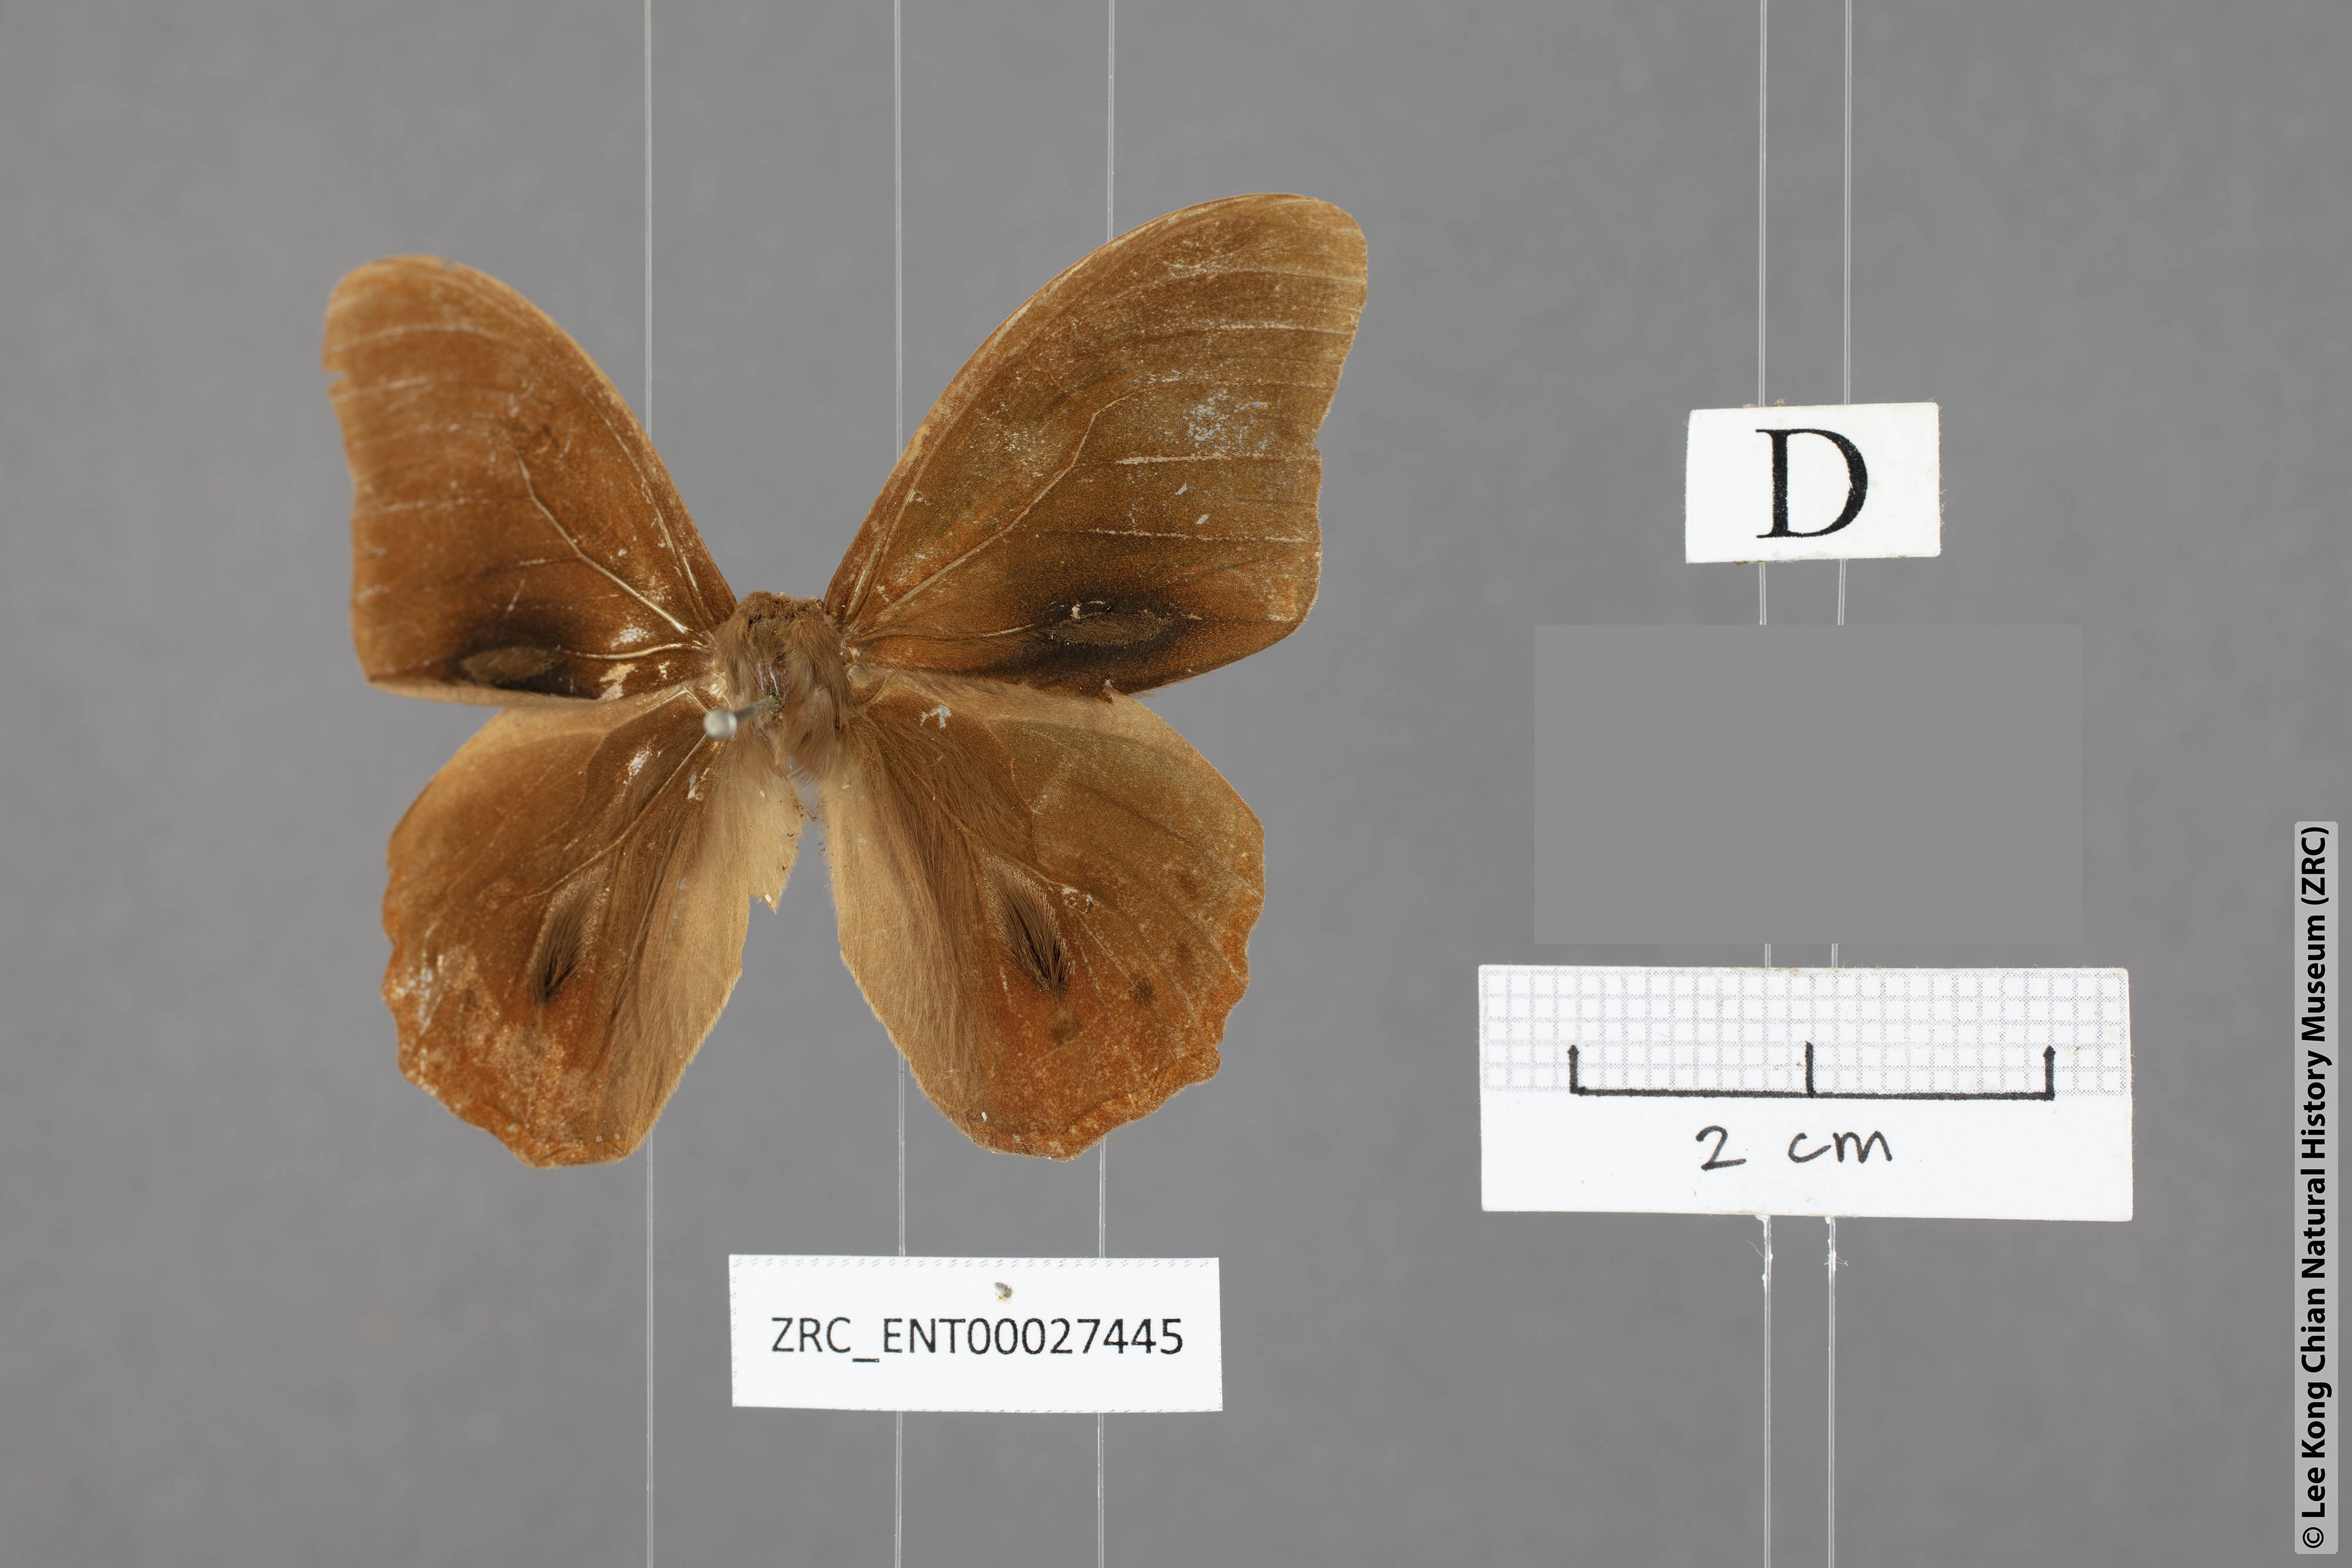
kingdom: Animalia
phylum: Arthropoda
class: Insecta
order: Lepidoptera
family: Nymphalidae
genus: Lethe
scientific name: Lethe minerva
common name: Banded red forester
